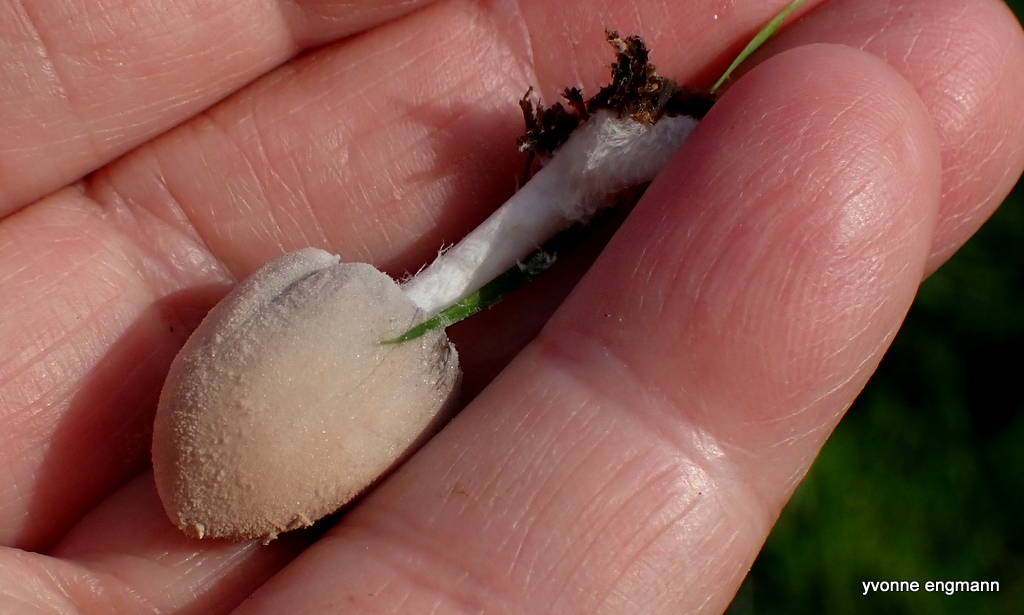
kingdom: Fungi
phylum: Basidiomycota
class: Agaricomycetes
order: Agaricales
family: Psathyrellaceae
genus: Coprinopsis
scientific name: Coprinopsis pseudonivea
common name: pudret blækhat
